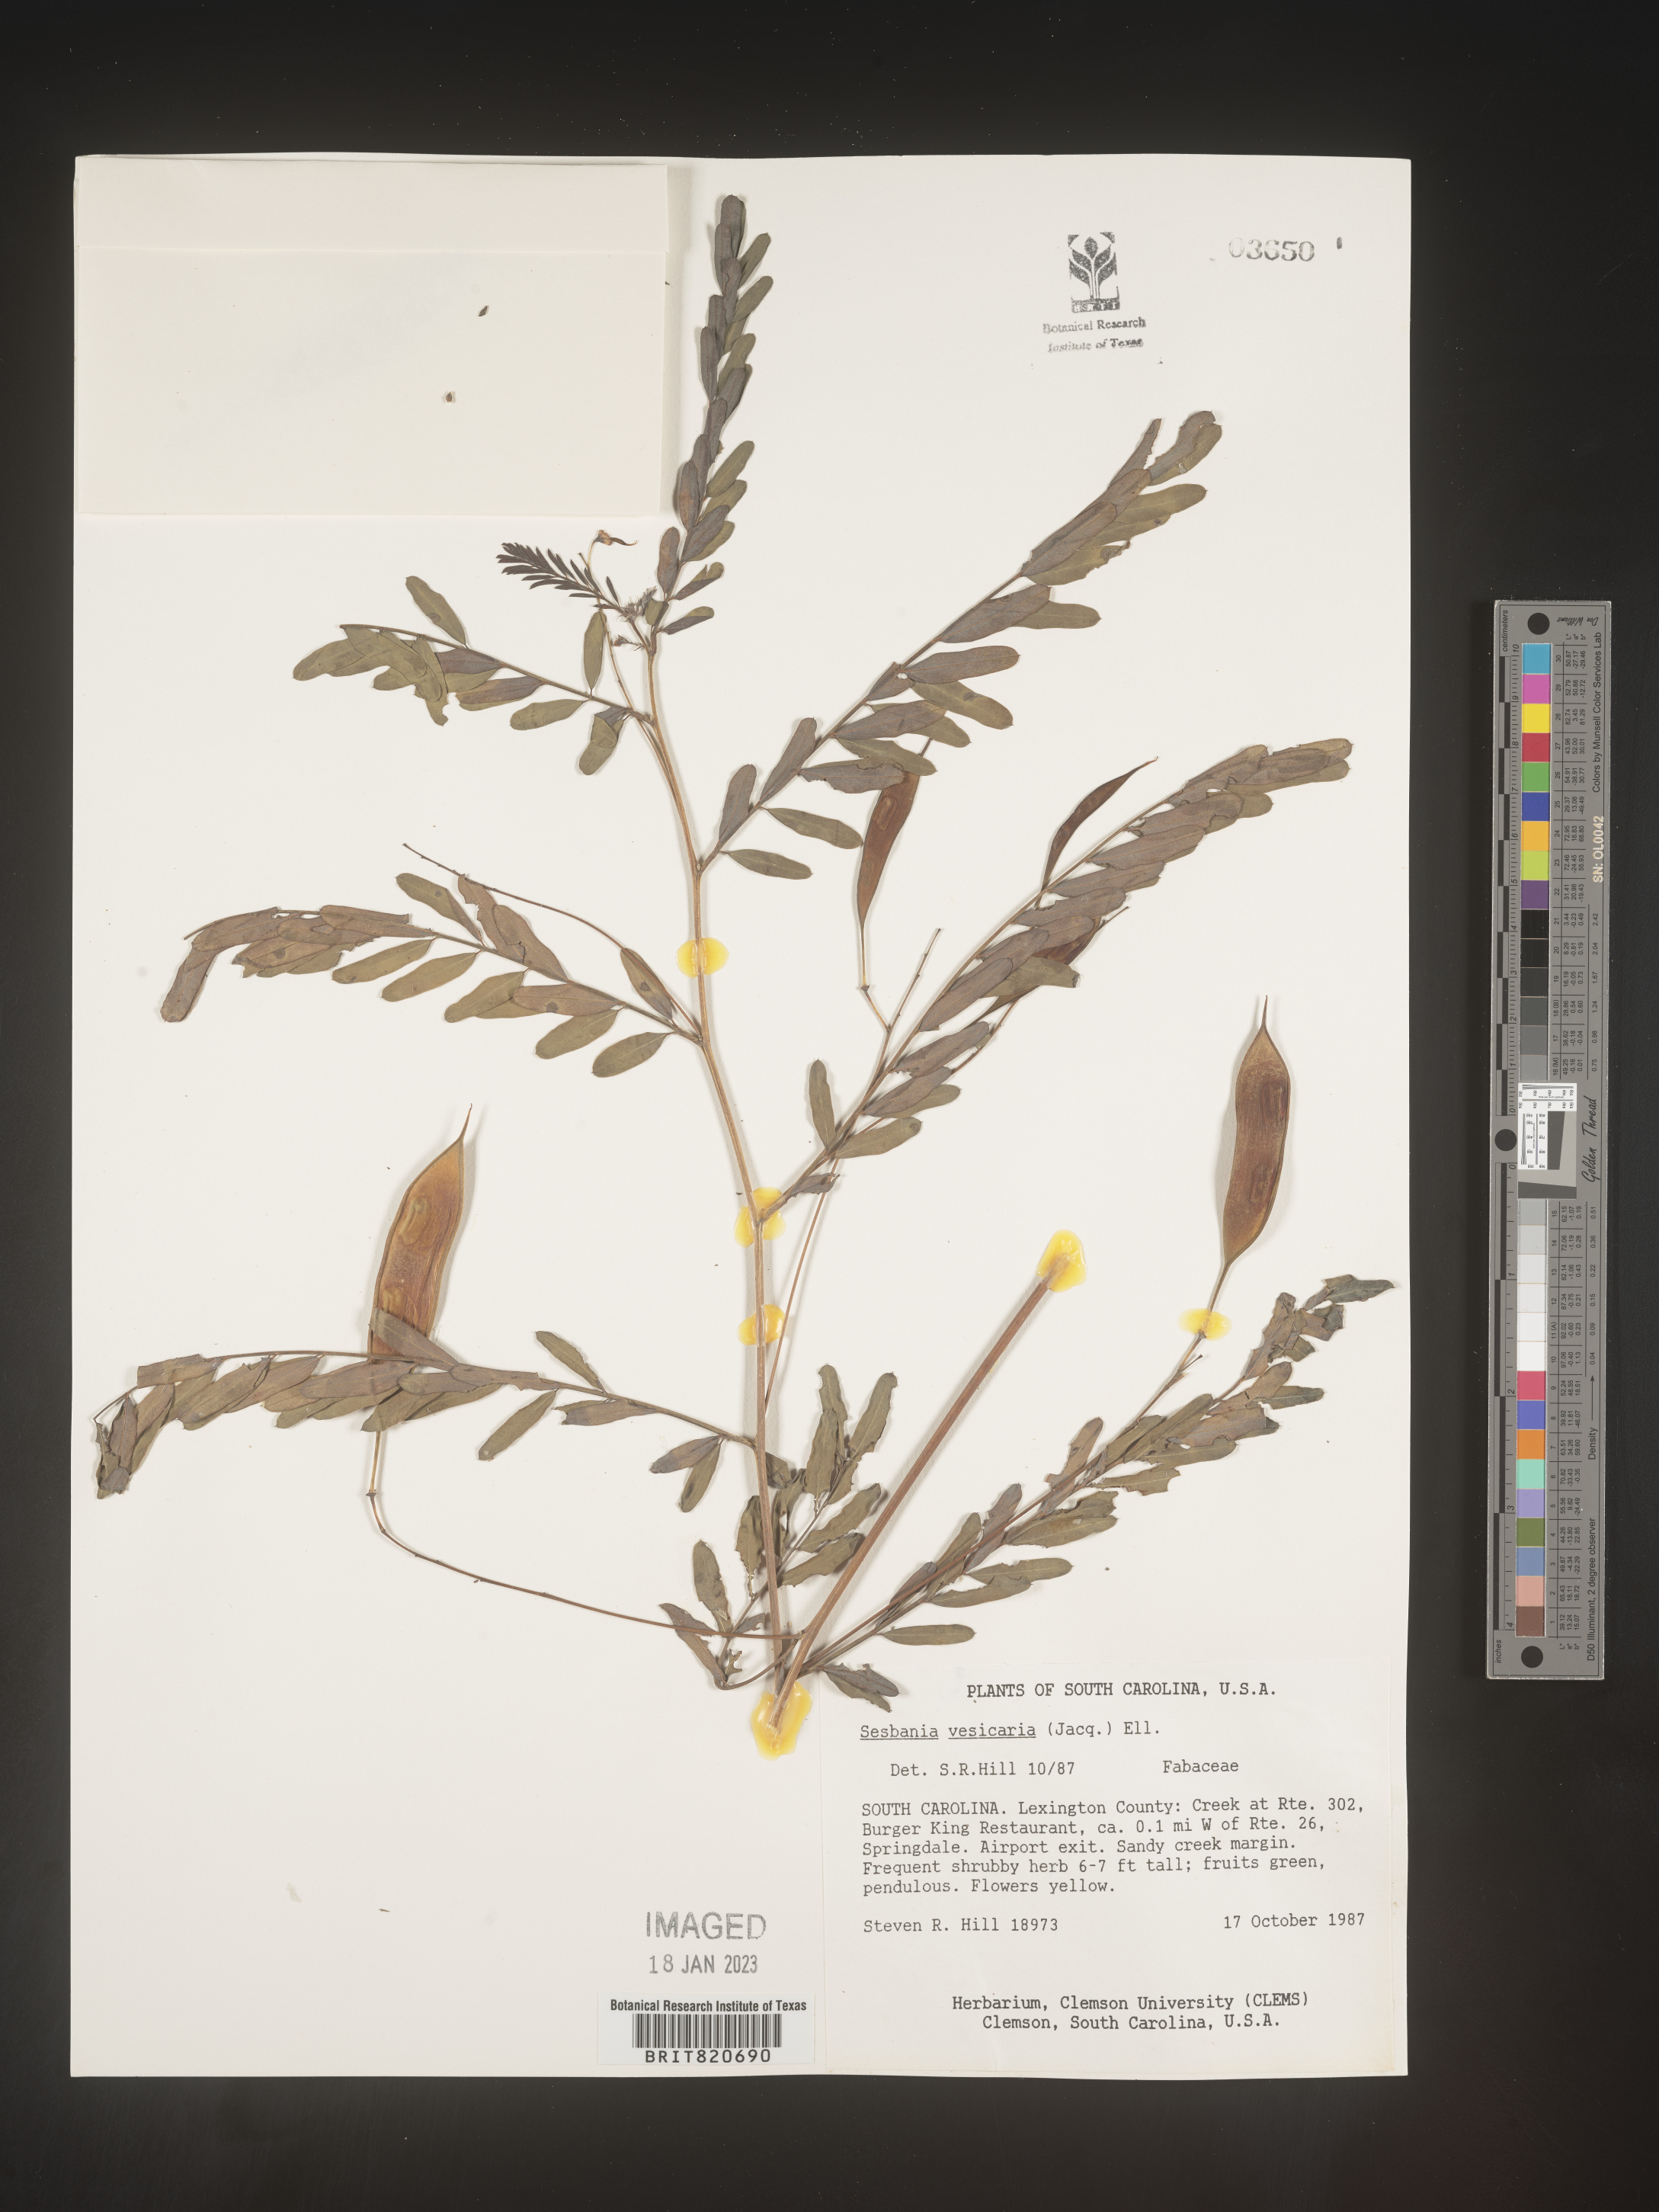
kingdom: Plantae
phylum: Tracheophyta
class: Magnoliopsida
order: Fabales
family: Fabaceae
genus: Sesbania
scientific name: Sesbania vesicaria
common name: Bagpod
